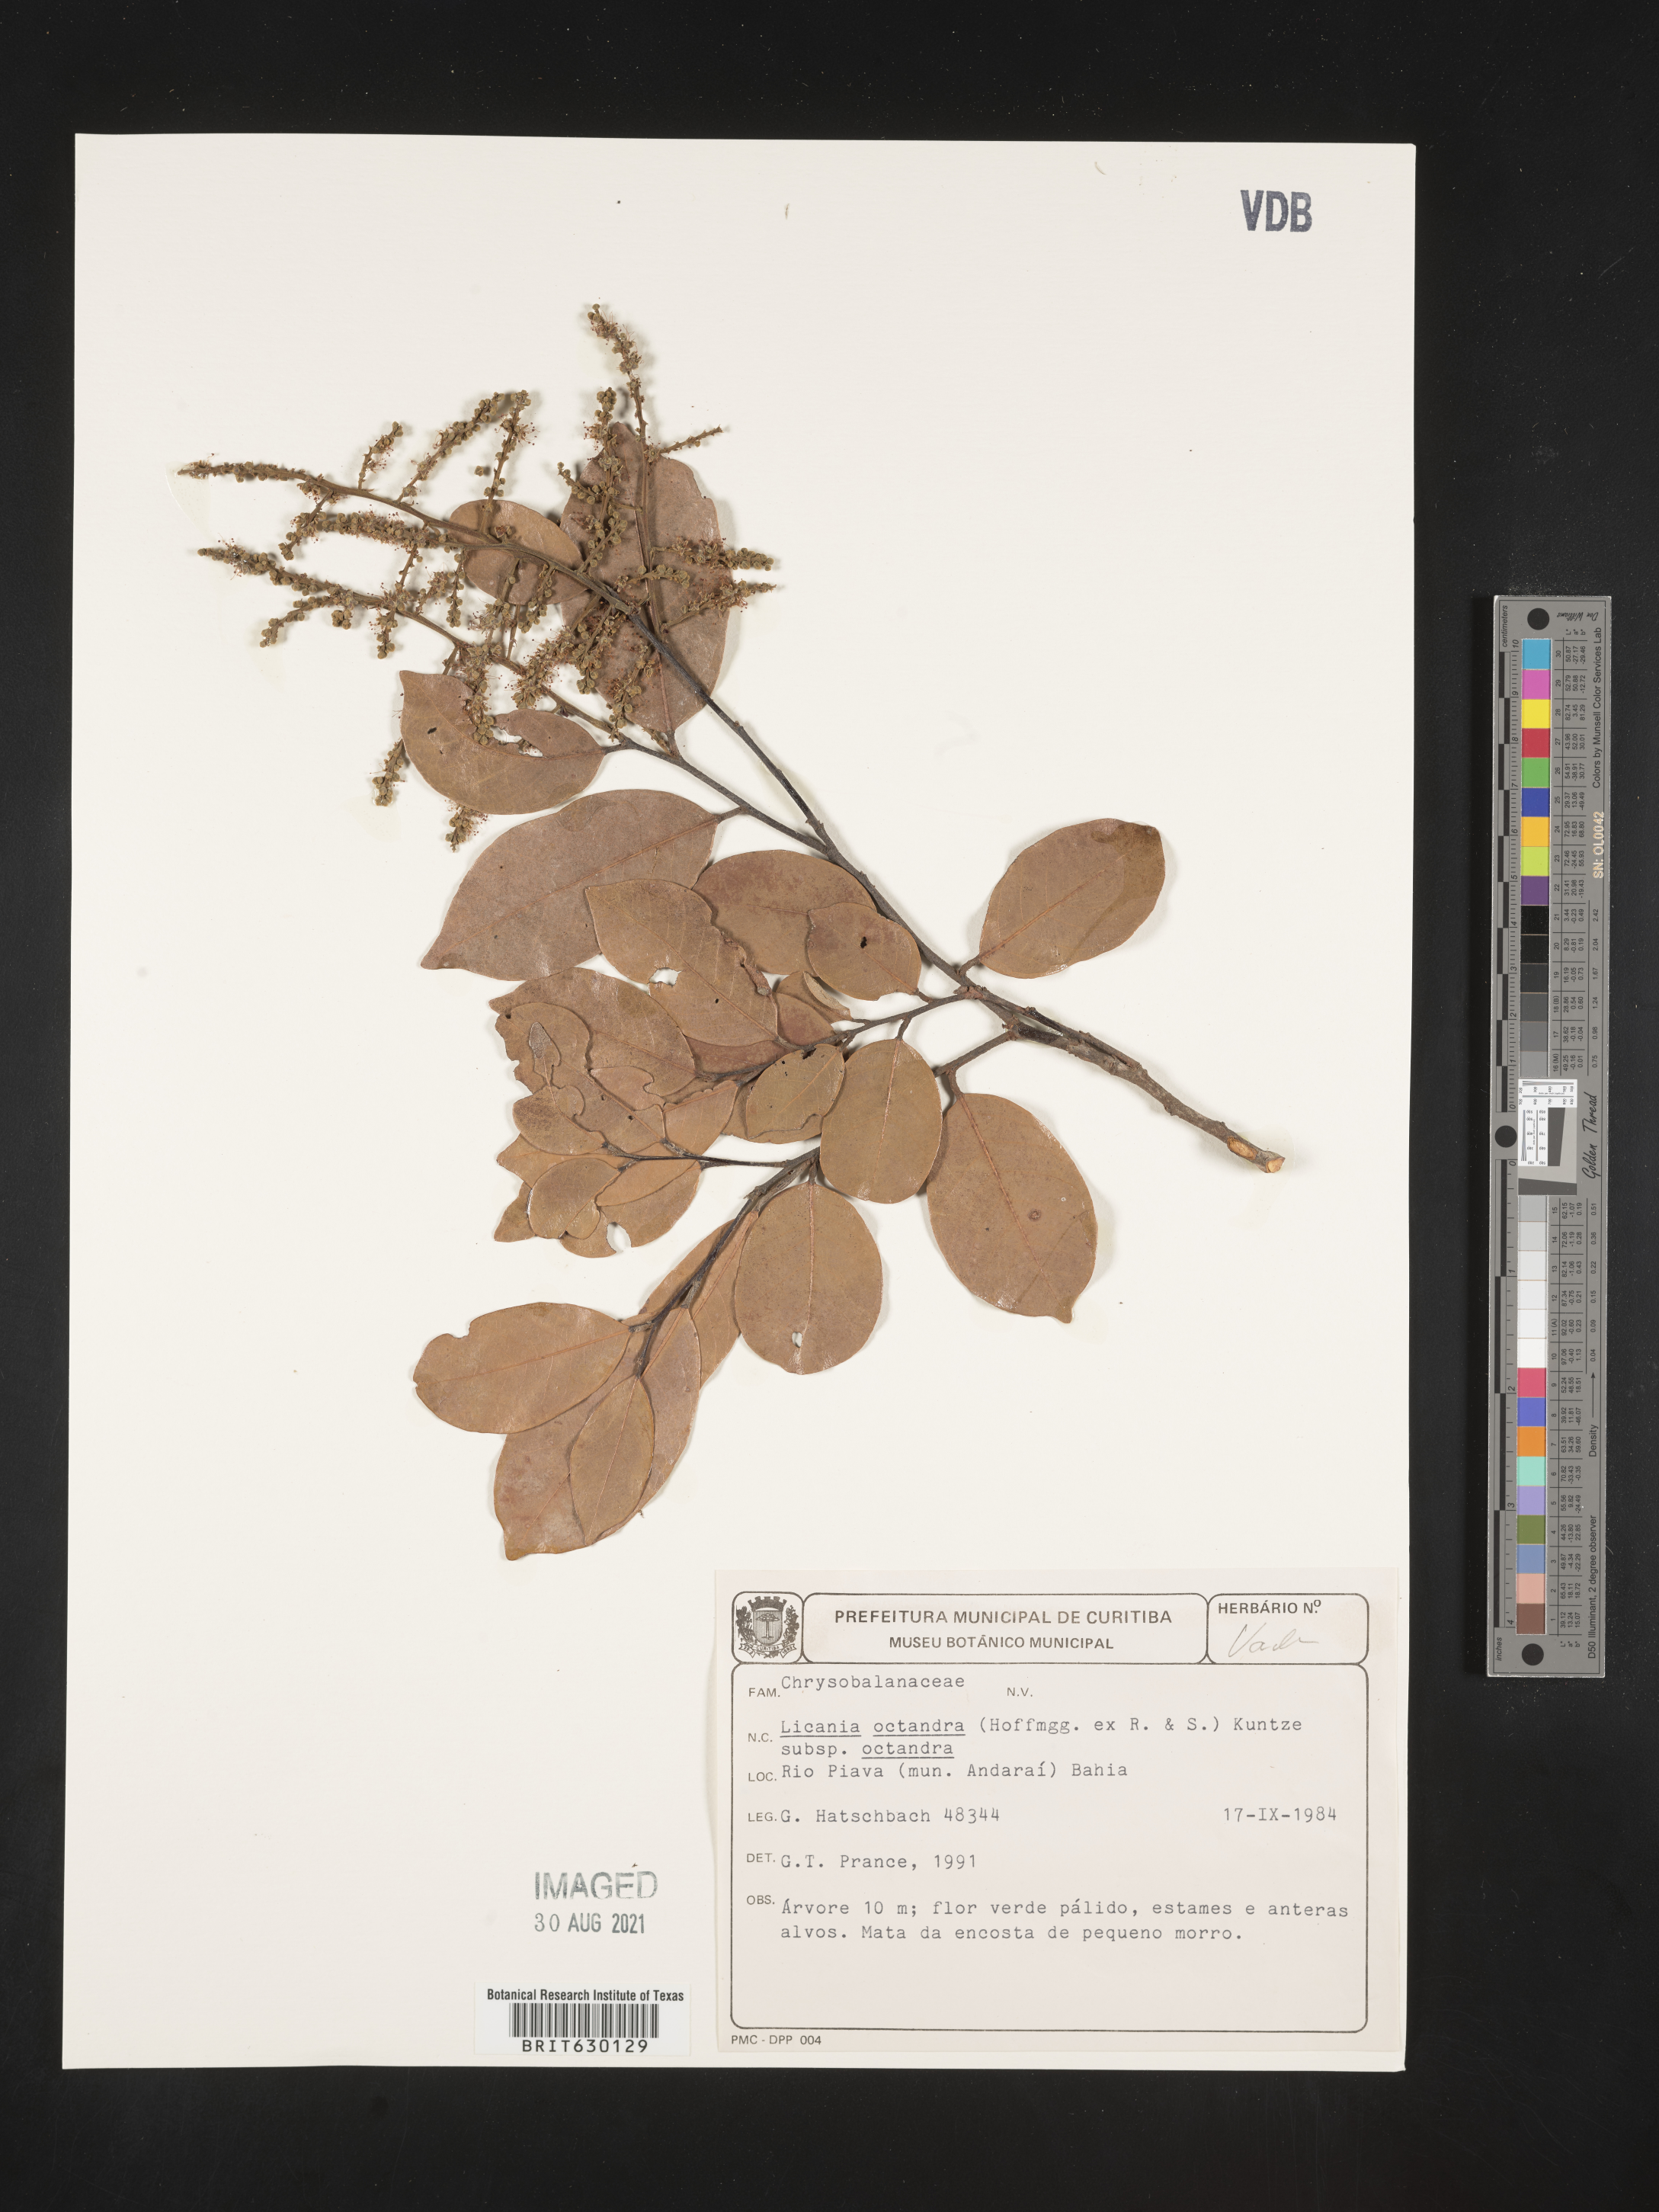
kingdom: Plantae
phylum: Tracheophyta
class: Magnoliopsida
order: Malpighiales
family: Chrysobalanaceae
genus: Leptobalanus
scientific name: Leptobalanus octandrus
